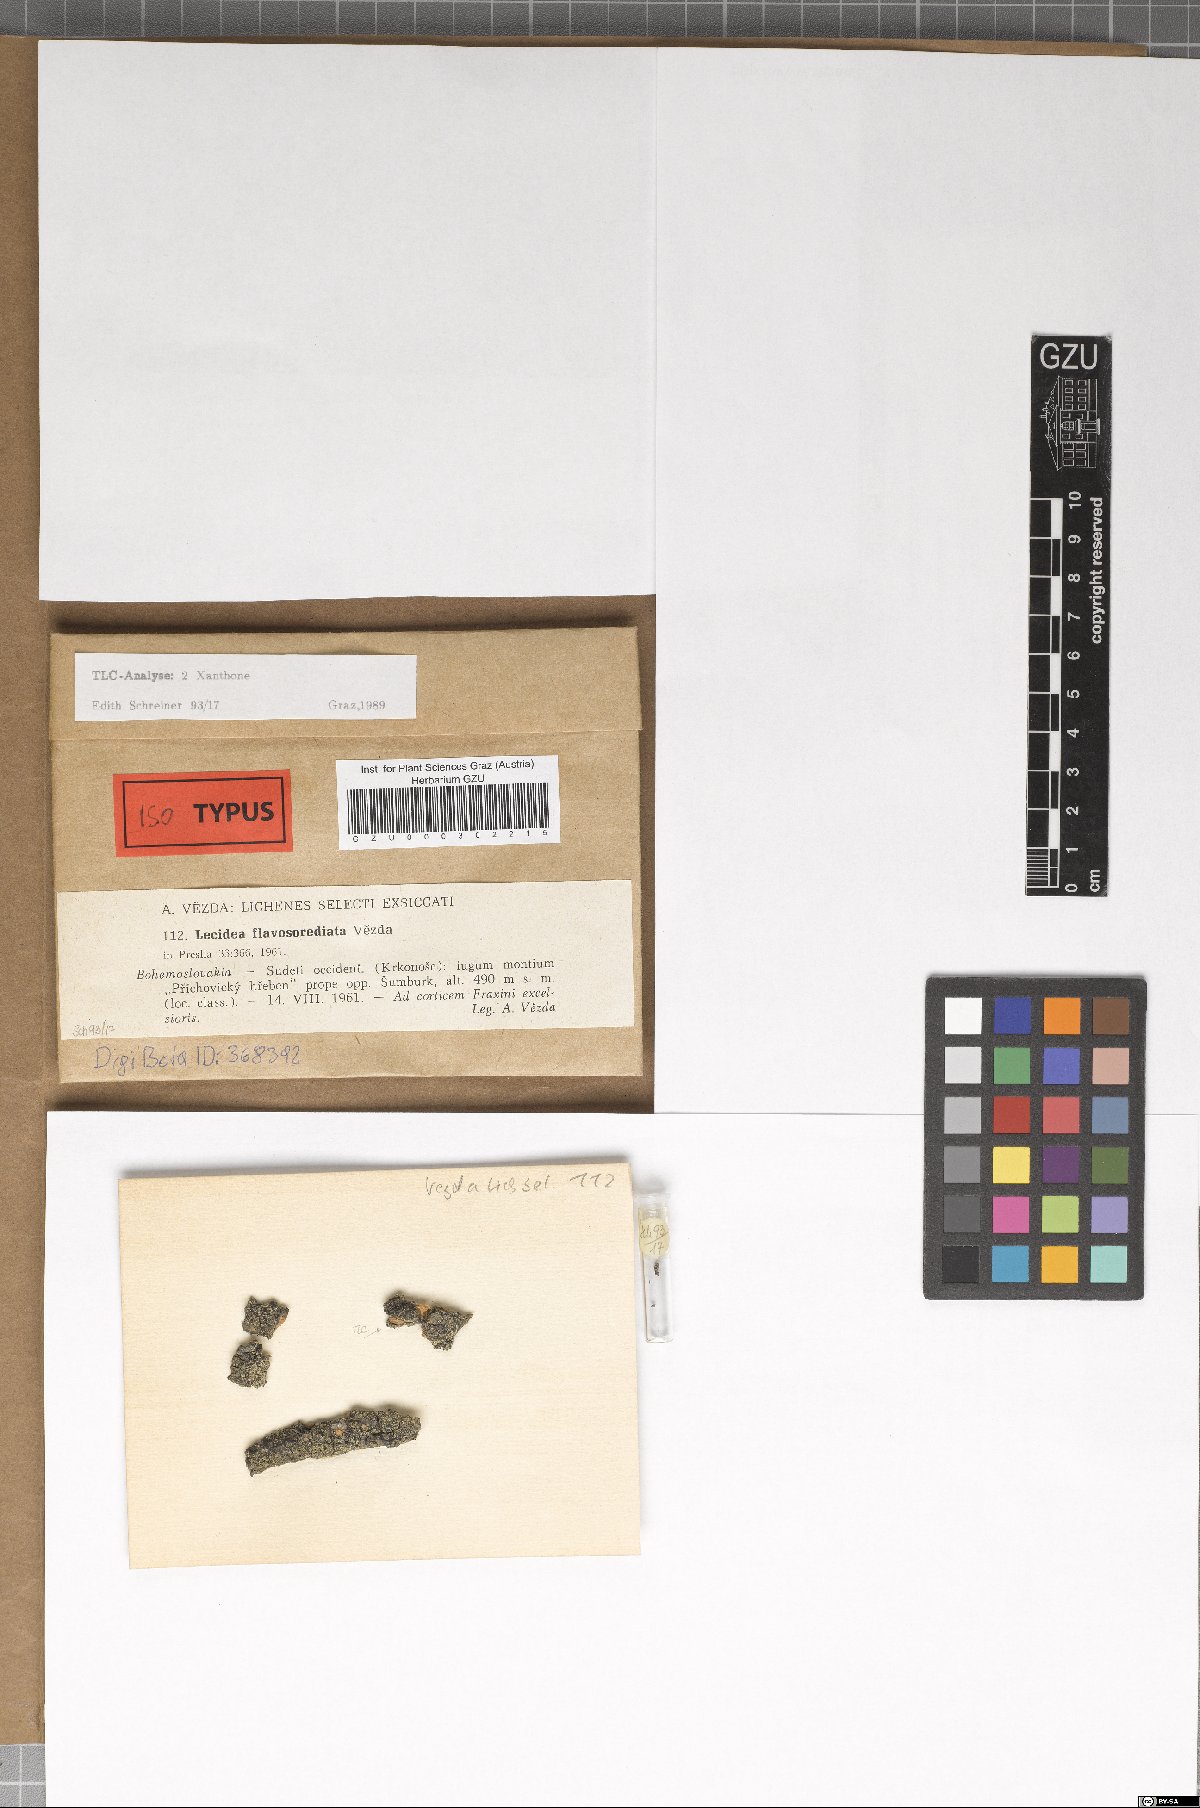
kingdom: Fungi
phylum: Ascomycota
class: Lecanoromycetes
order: Lecanorales
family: Lecanoraceae
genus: Lecidella
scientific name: Lecidella flavosorediata
